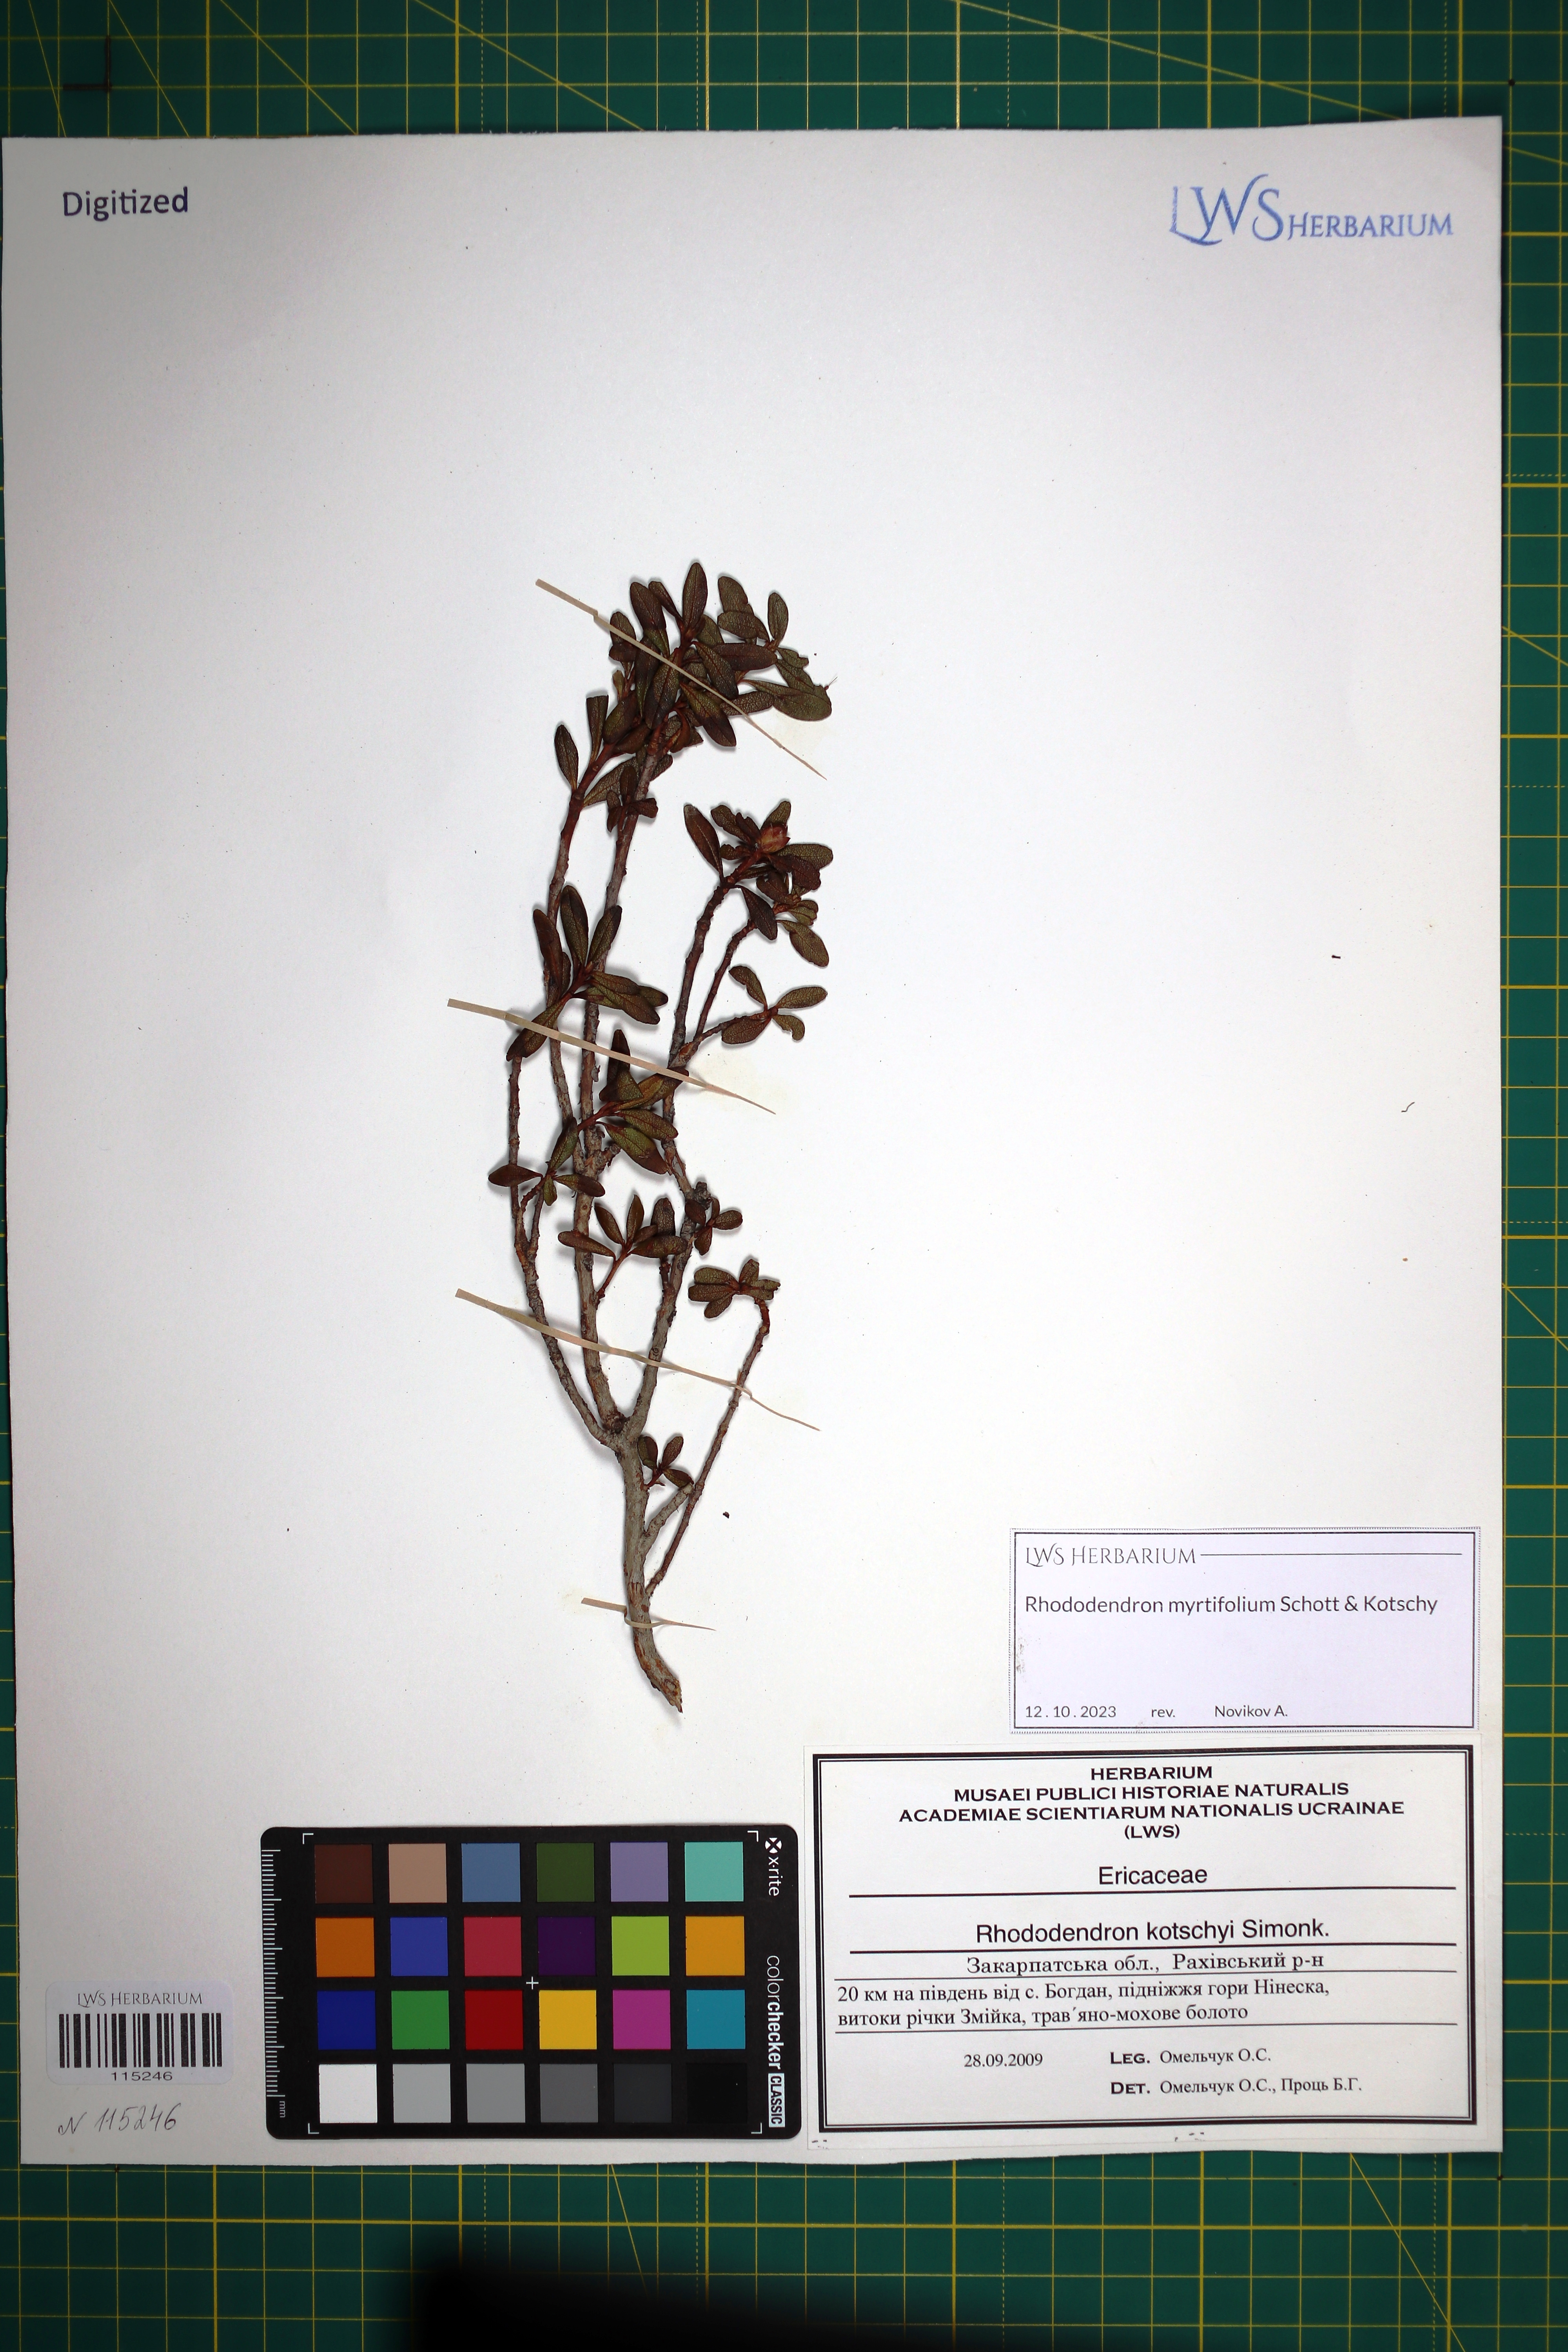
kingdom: Plantae
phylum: Tracheophyta
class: Magnoliopsida
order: Ericales
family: Ericaceae
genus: Rhododendron
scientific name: Rhododendron kotschyi
